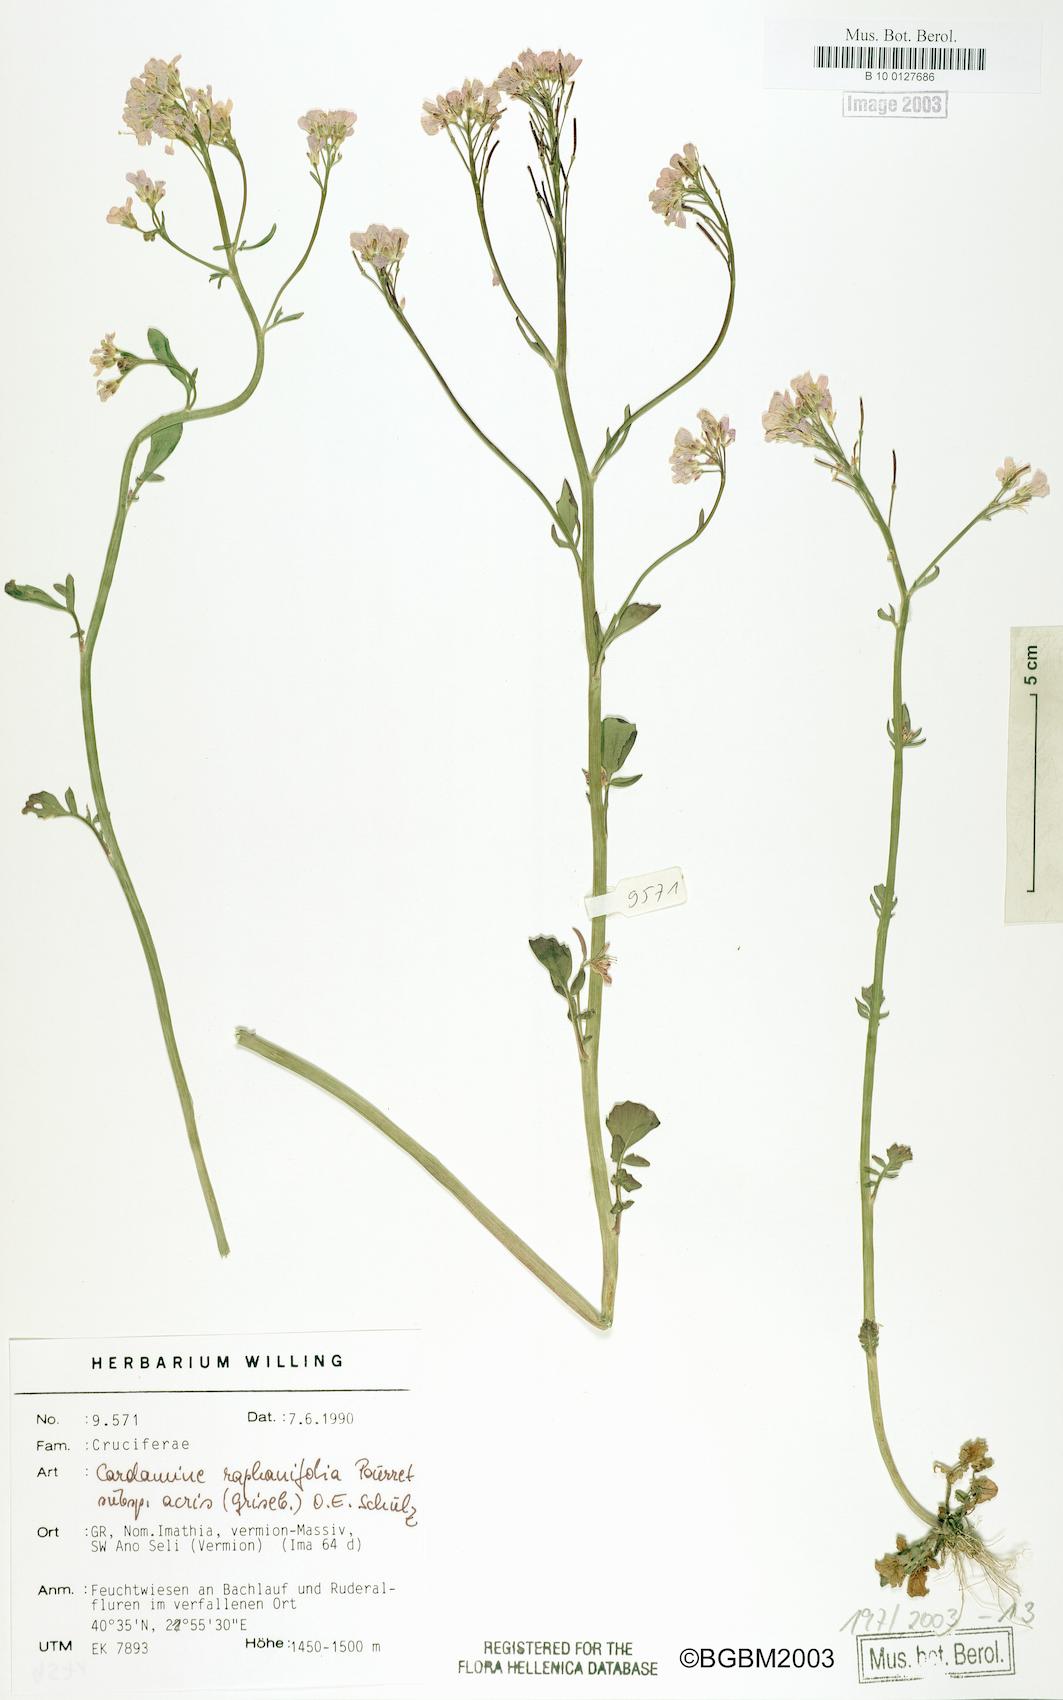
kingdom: Plantae
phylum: Tracheophyta
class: Magnoliopsida
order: Brassicales
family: Brassicaceae
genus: Cardamine
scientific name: Cardamine raphanifolia
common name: Greater cuckooflower
